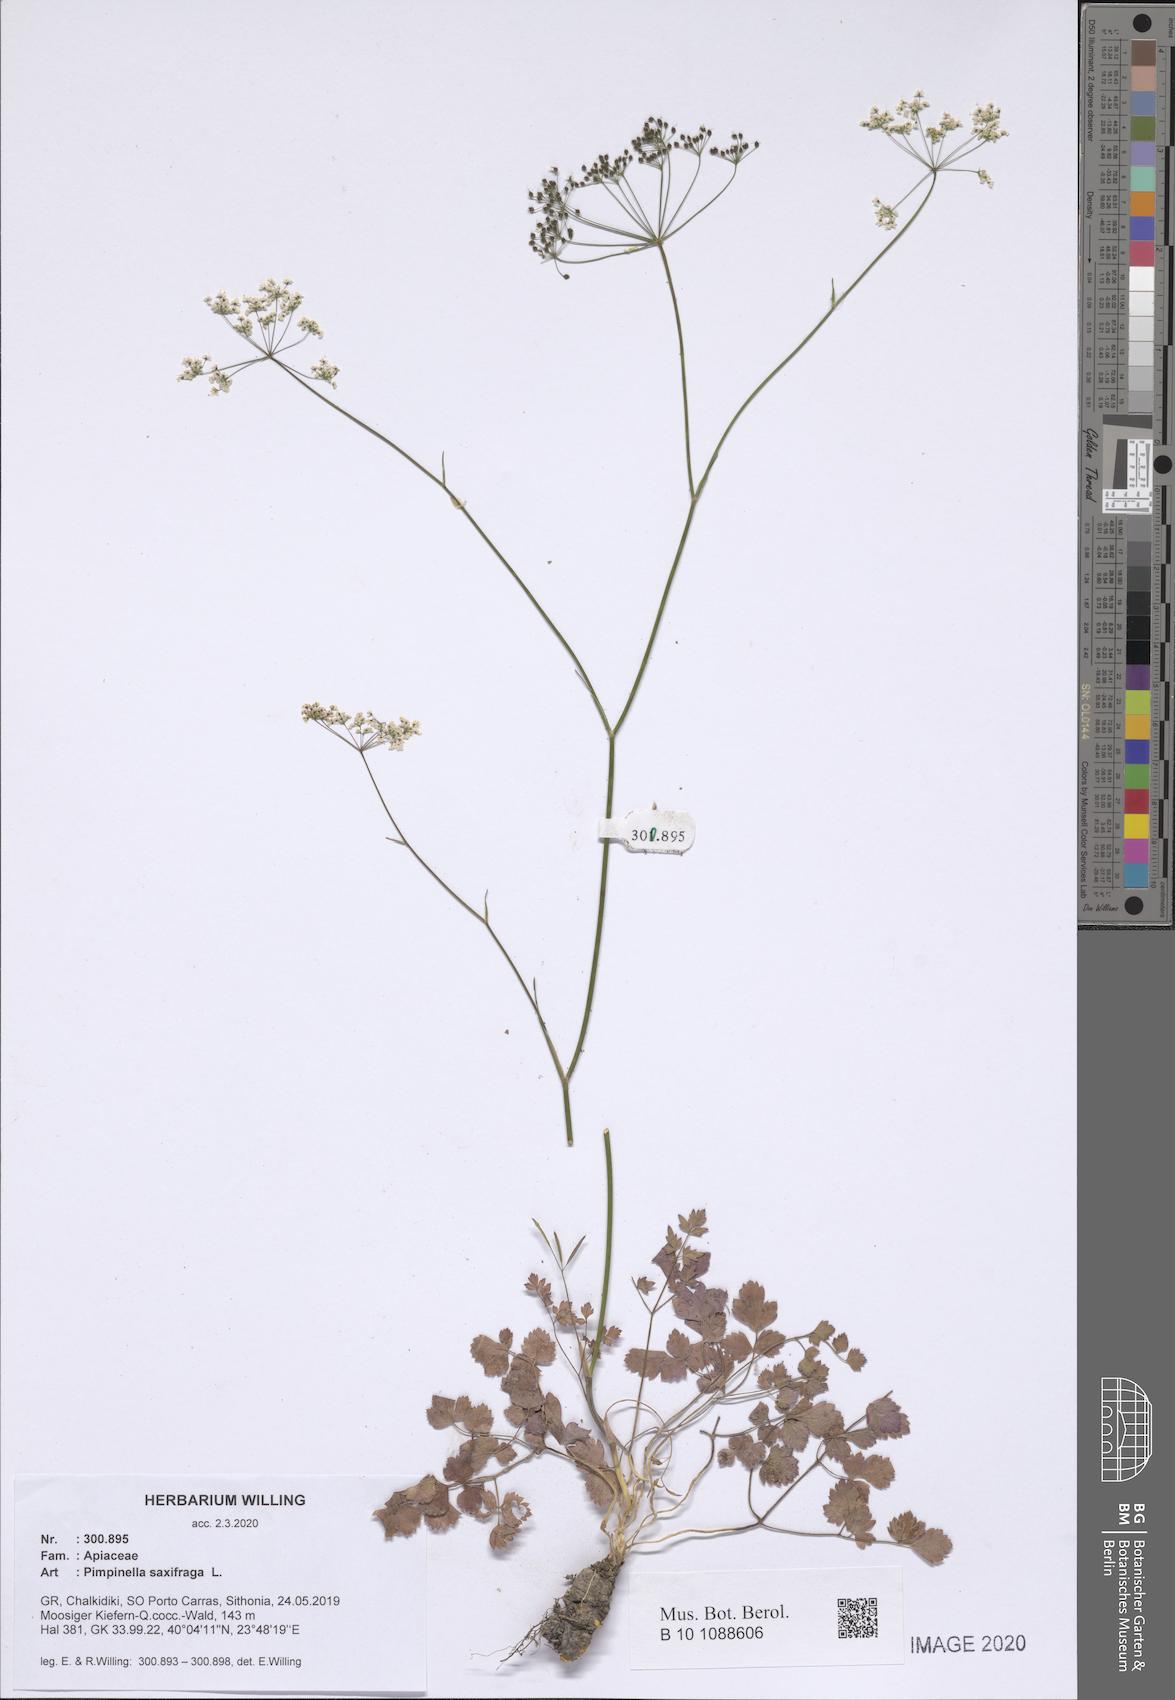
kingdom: Plantae
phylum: Tracheophyta
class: Magnoliopsida
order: Apiales
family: Apiaceae
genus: Pimpinella
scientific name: Pimpinella saxifraga
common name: Burnet-saxifrage
